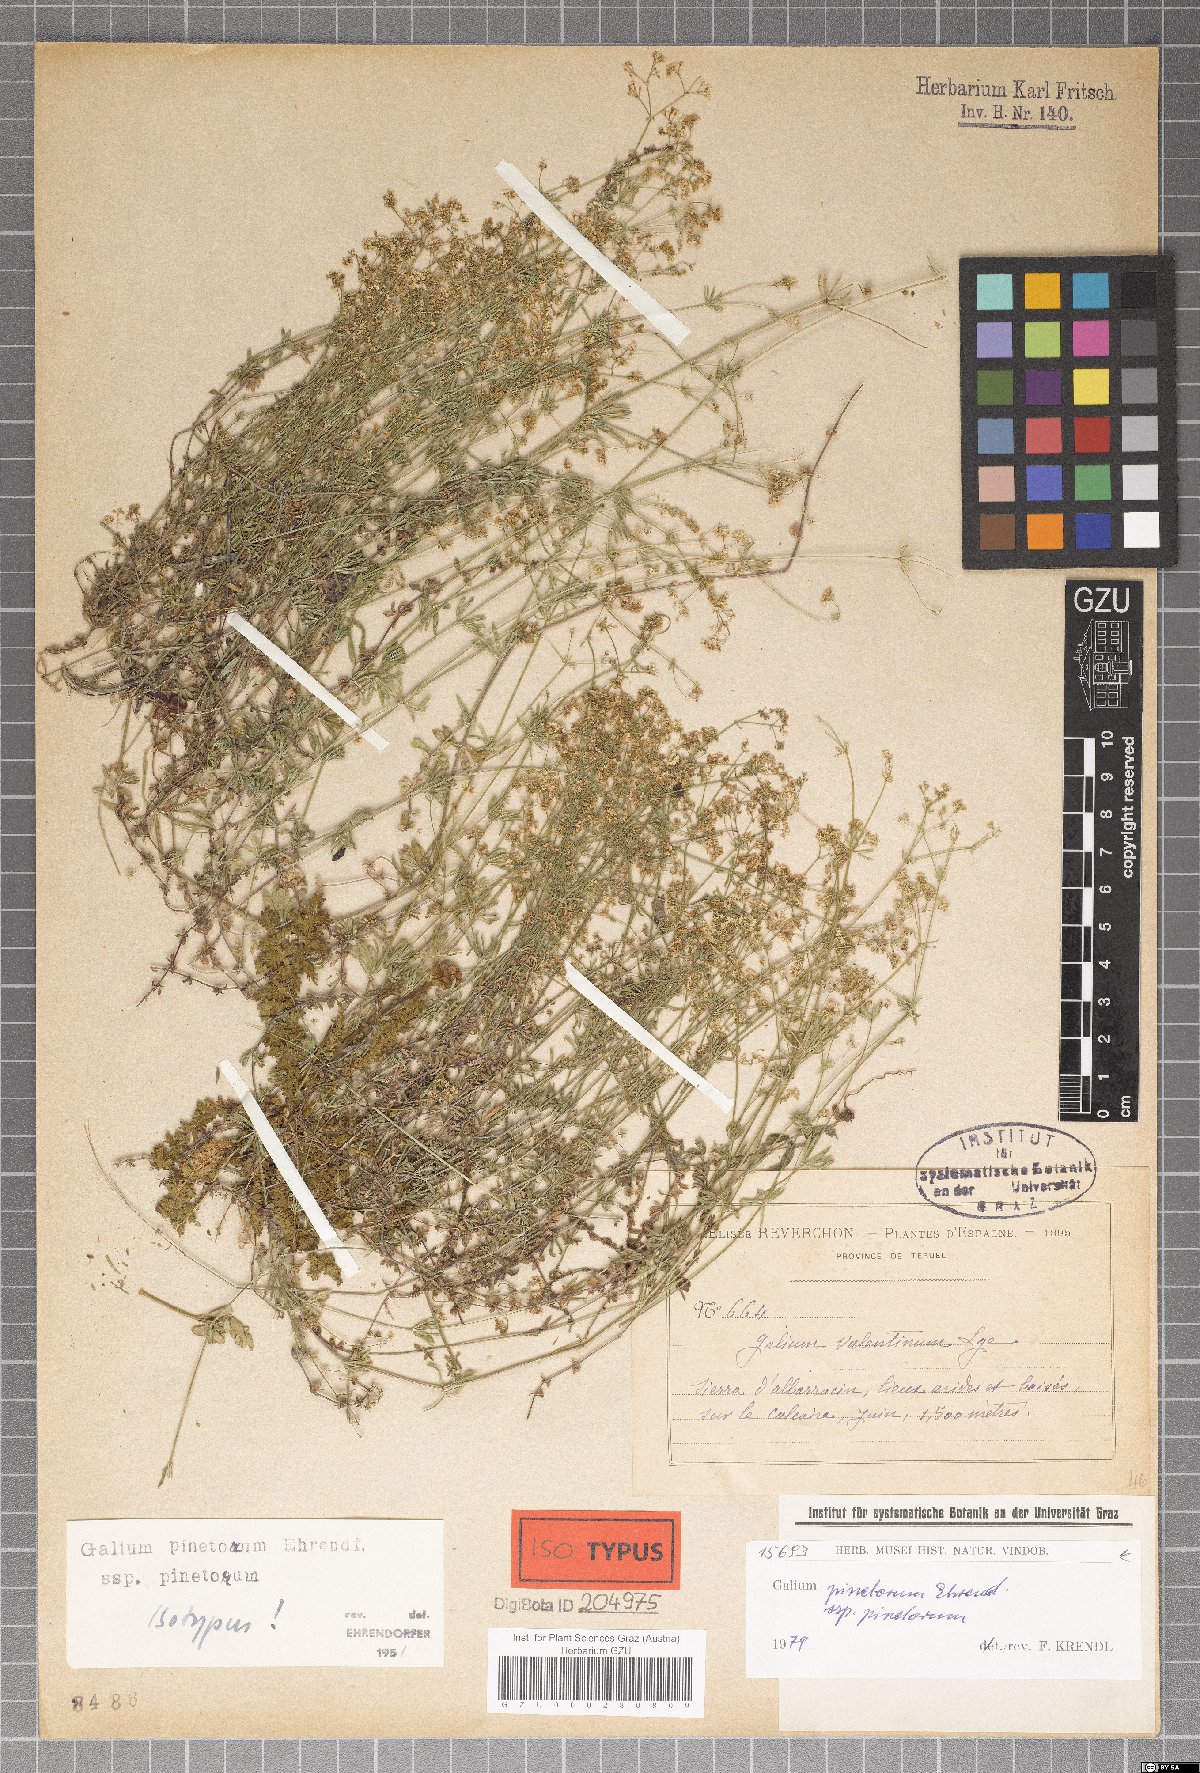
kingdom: Plantae
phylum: Tracheophyta
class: Magnoliopsida
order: Gentianales
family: Rubiaceae
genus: Galium
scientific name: Galium estebanii
